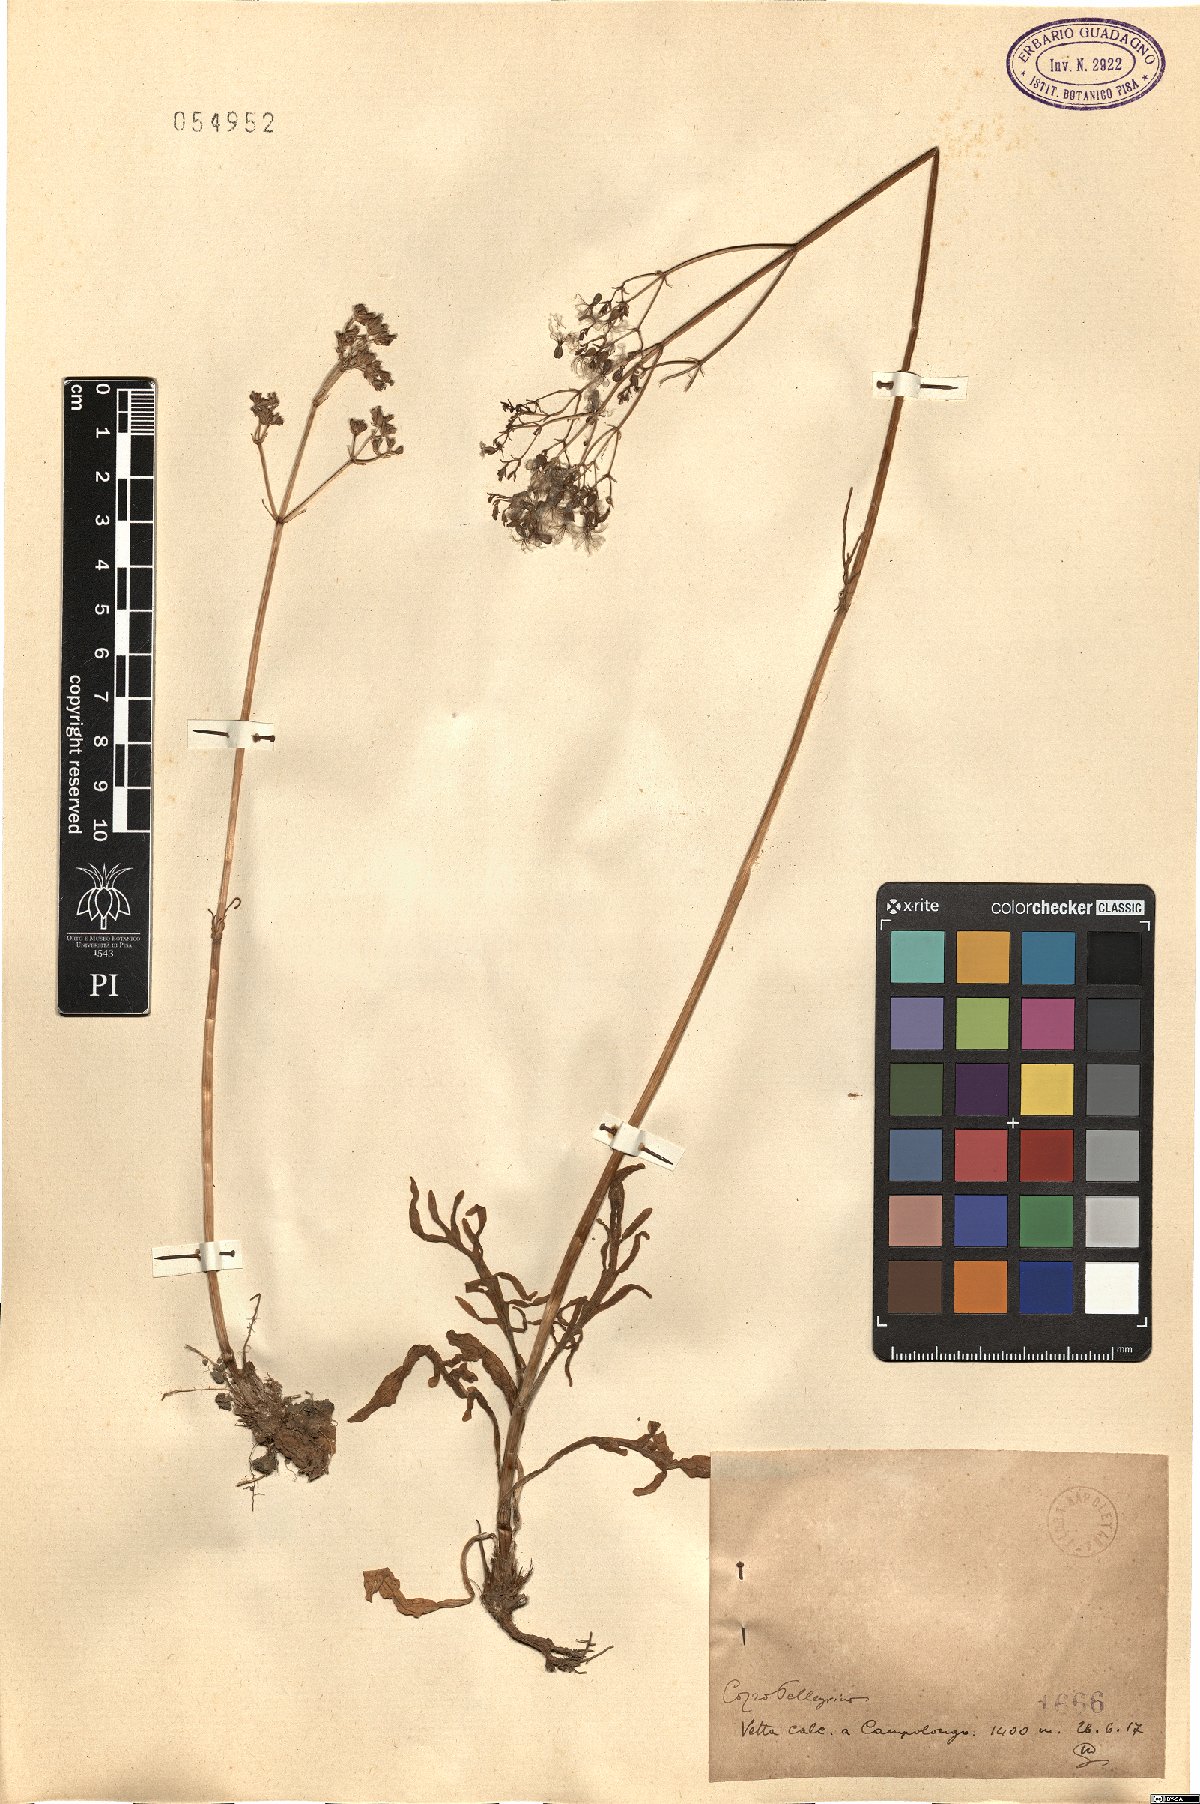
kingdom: Plantae
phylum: Tracheophyta
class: Magnoliopsida
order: Dipsacales
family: Caprifoliaceae
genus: Valeriana
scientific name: Valeriana
